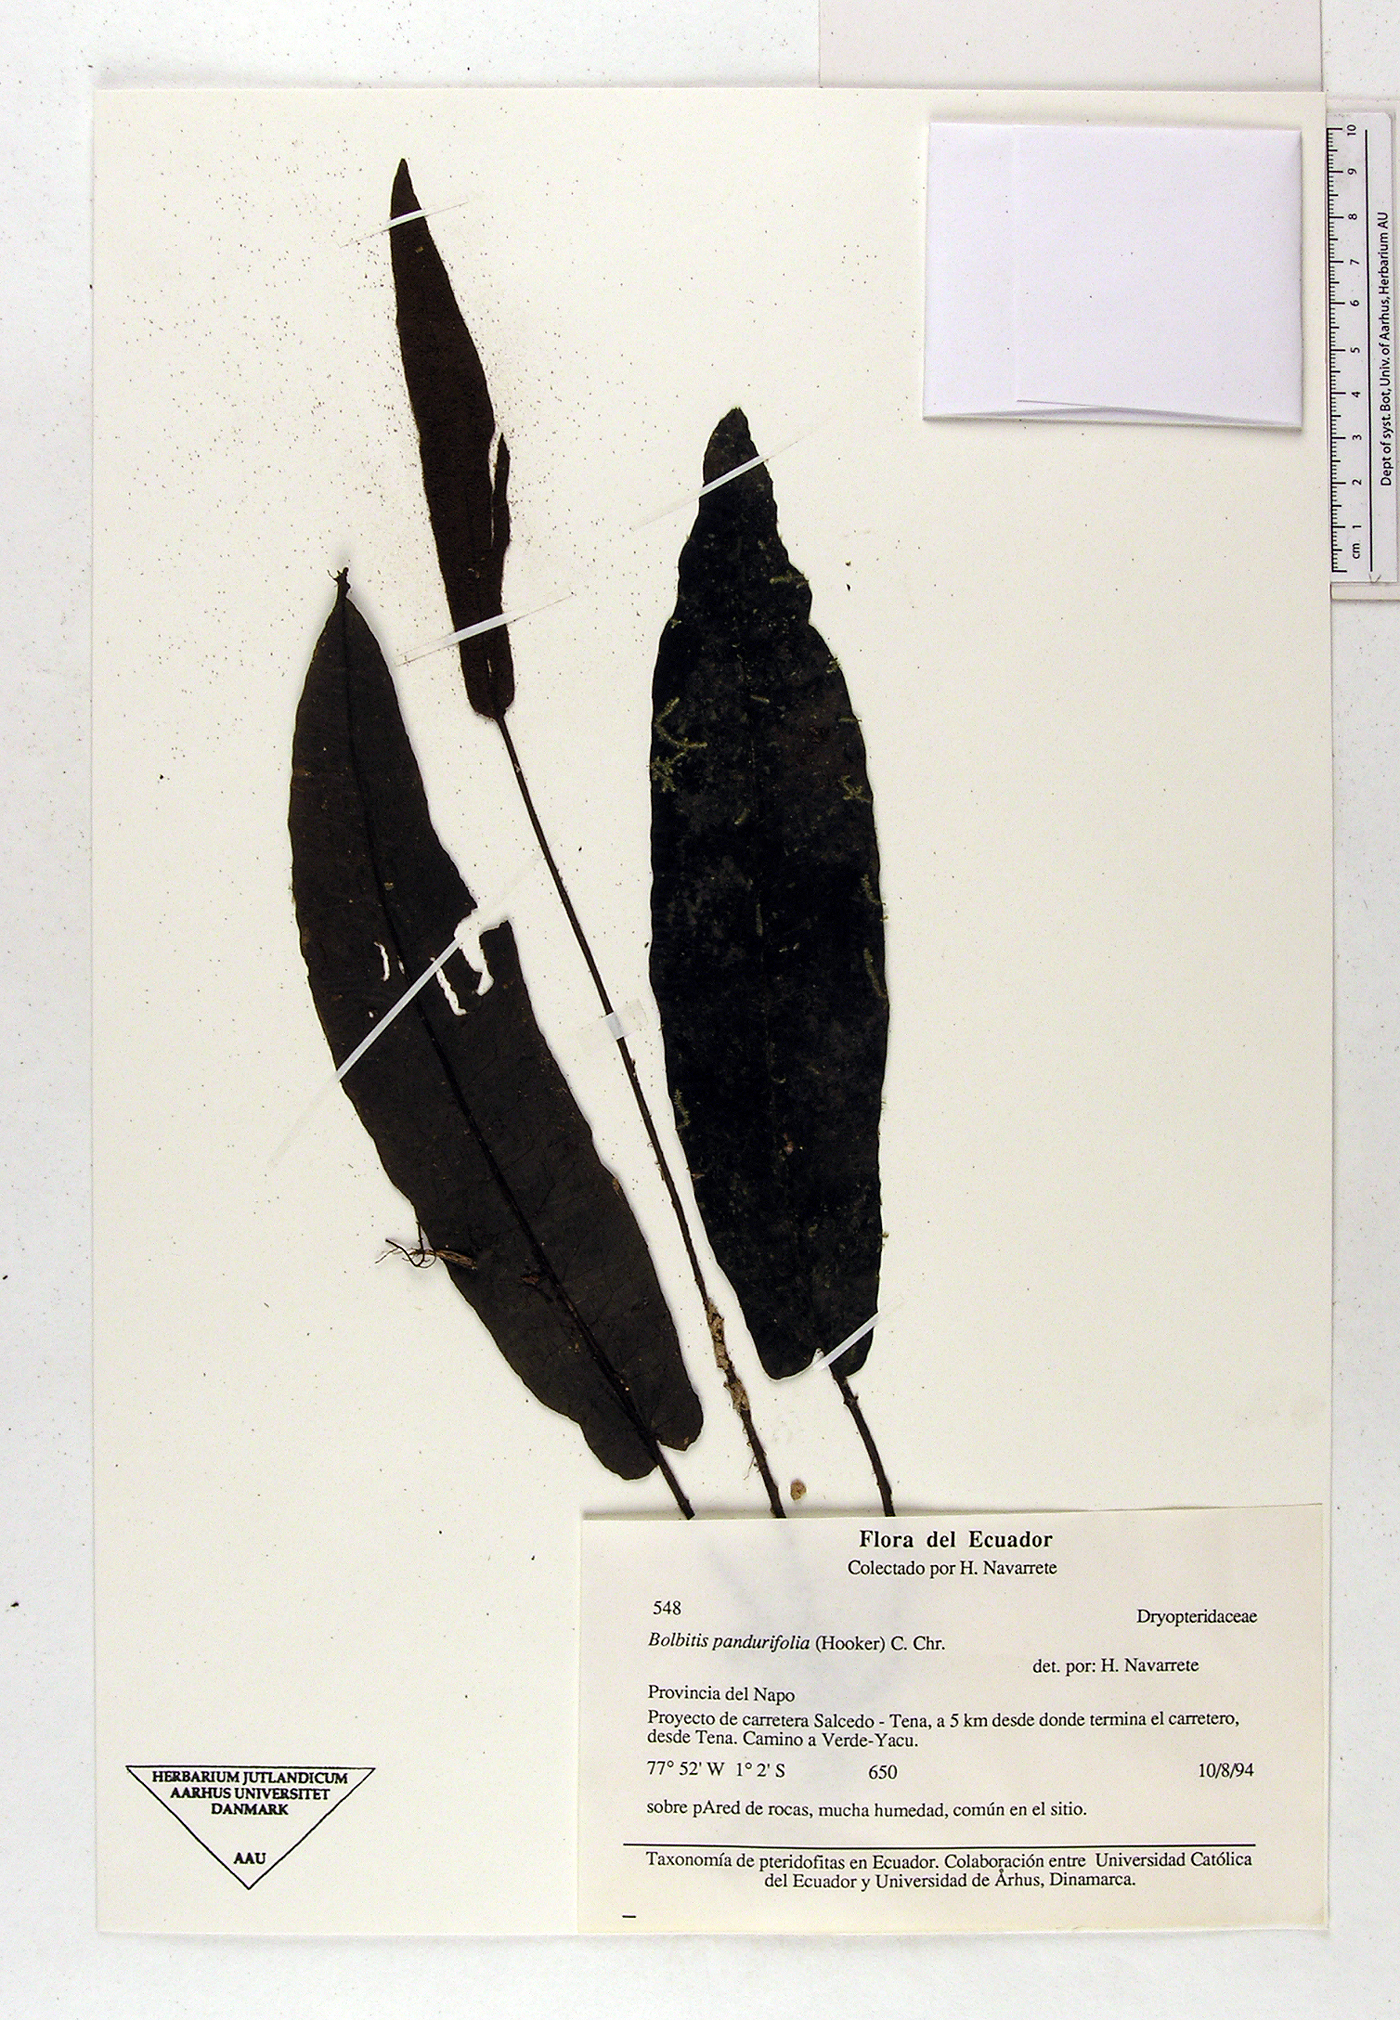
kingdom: Plantae
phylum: Tracheophyta
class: Polypodiopsida
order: Polypodiales
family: Dryopteridaceae
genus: Bolbitis
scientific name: Bolbitis pandurifolia
